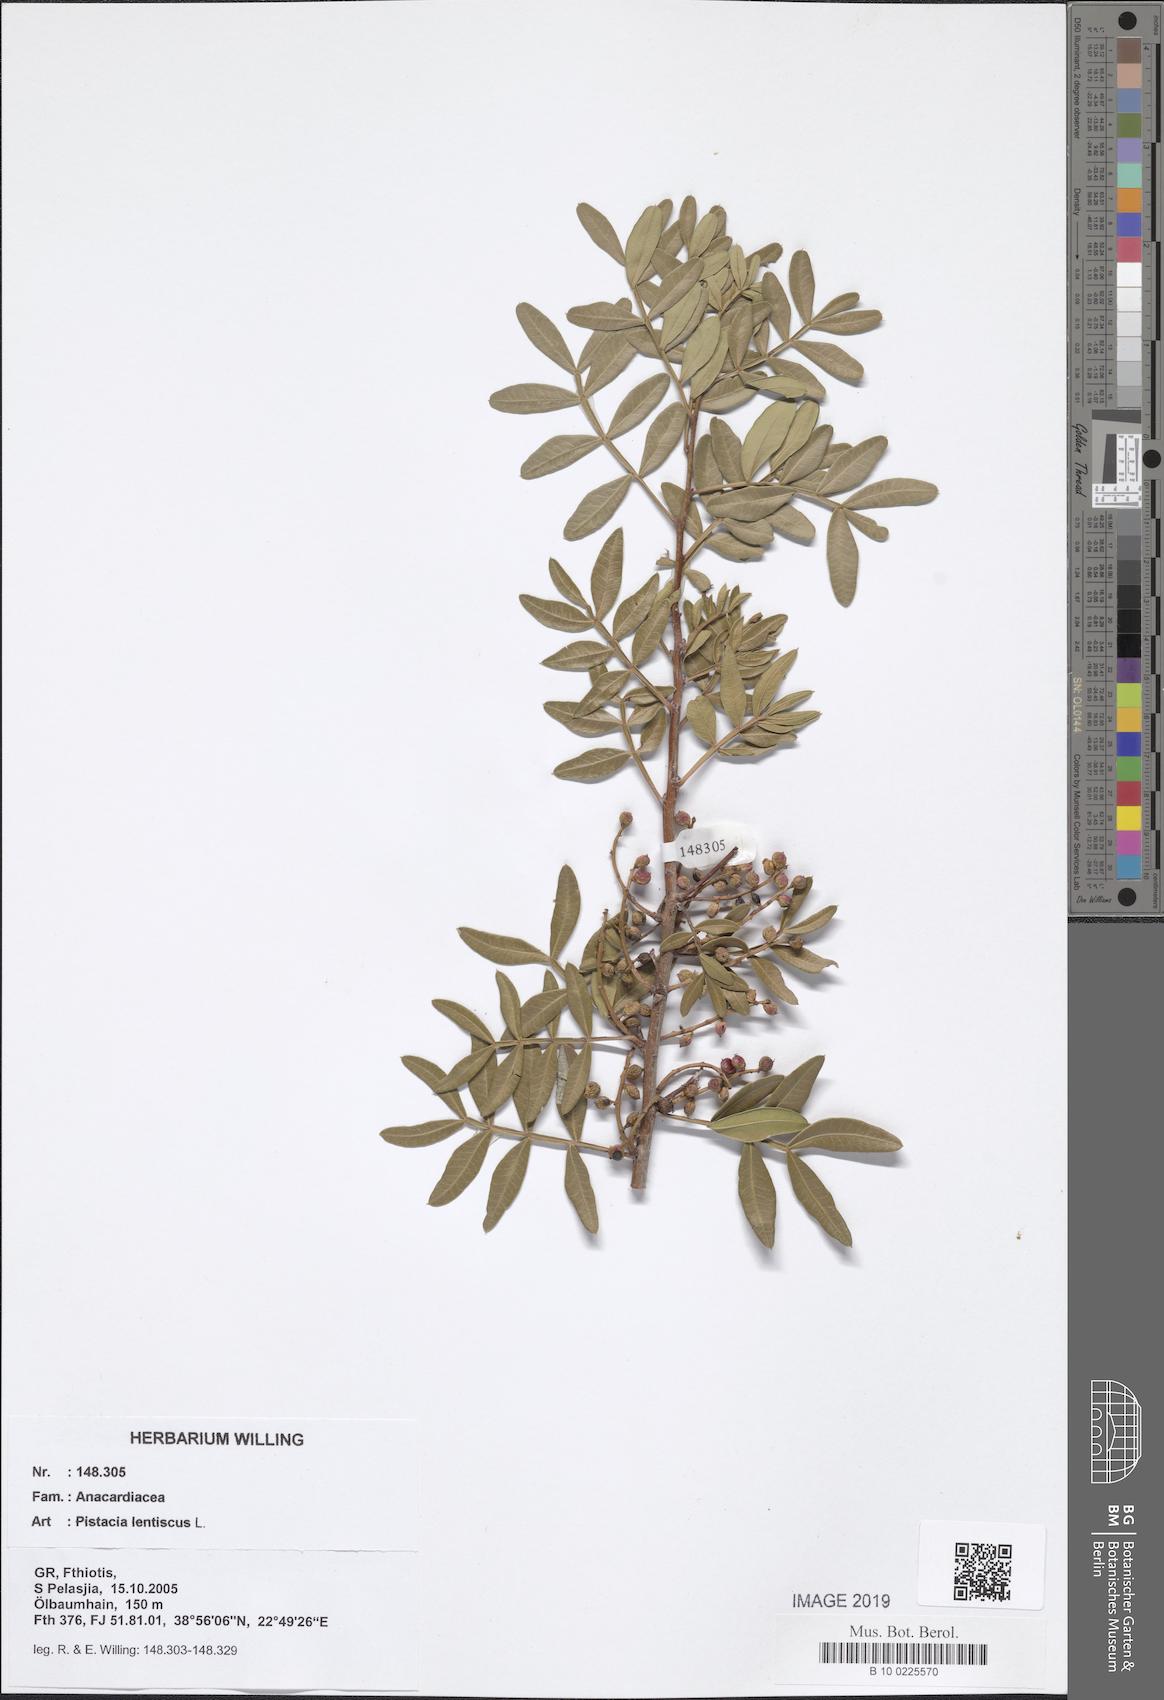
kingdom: Plantae
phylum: Tracheophyta
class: Magnoliopsida
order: Sapindales
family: Anacardiaceae
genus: Pistacia
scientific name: Pistacia lentiscus
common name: Lentisk
